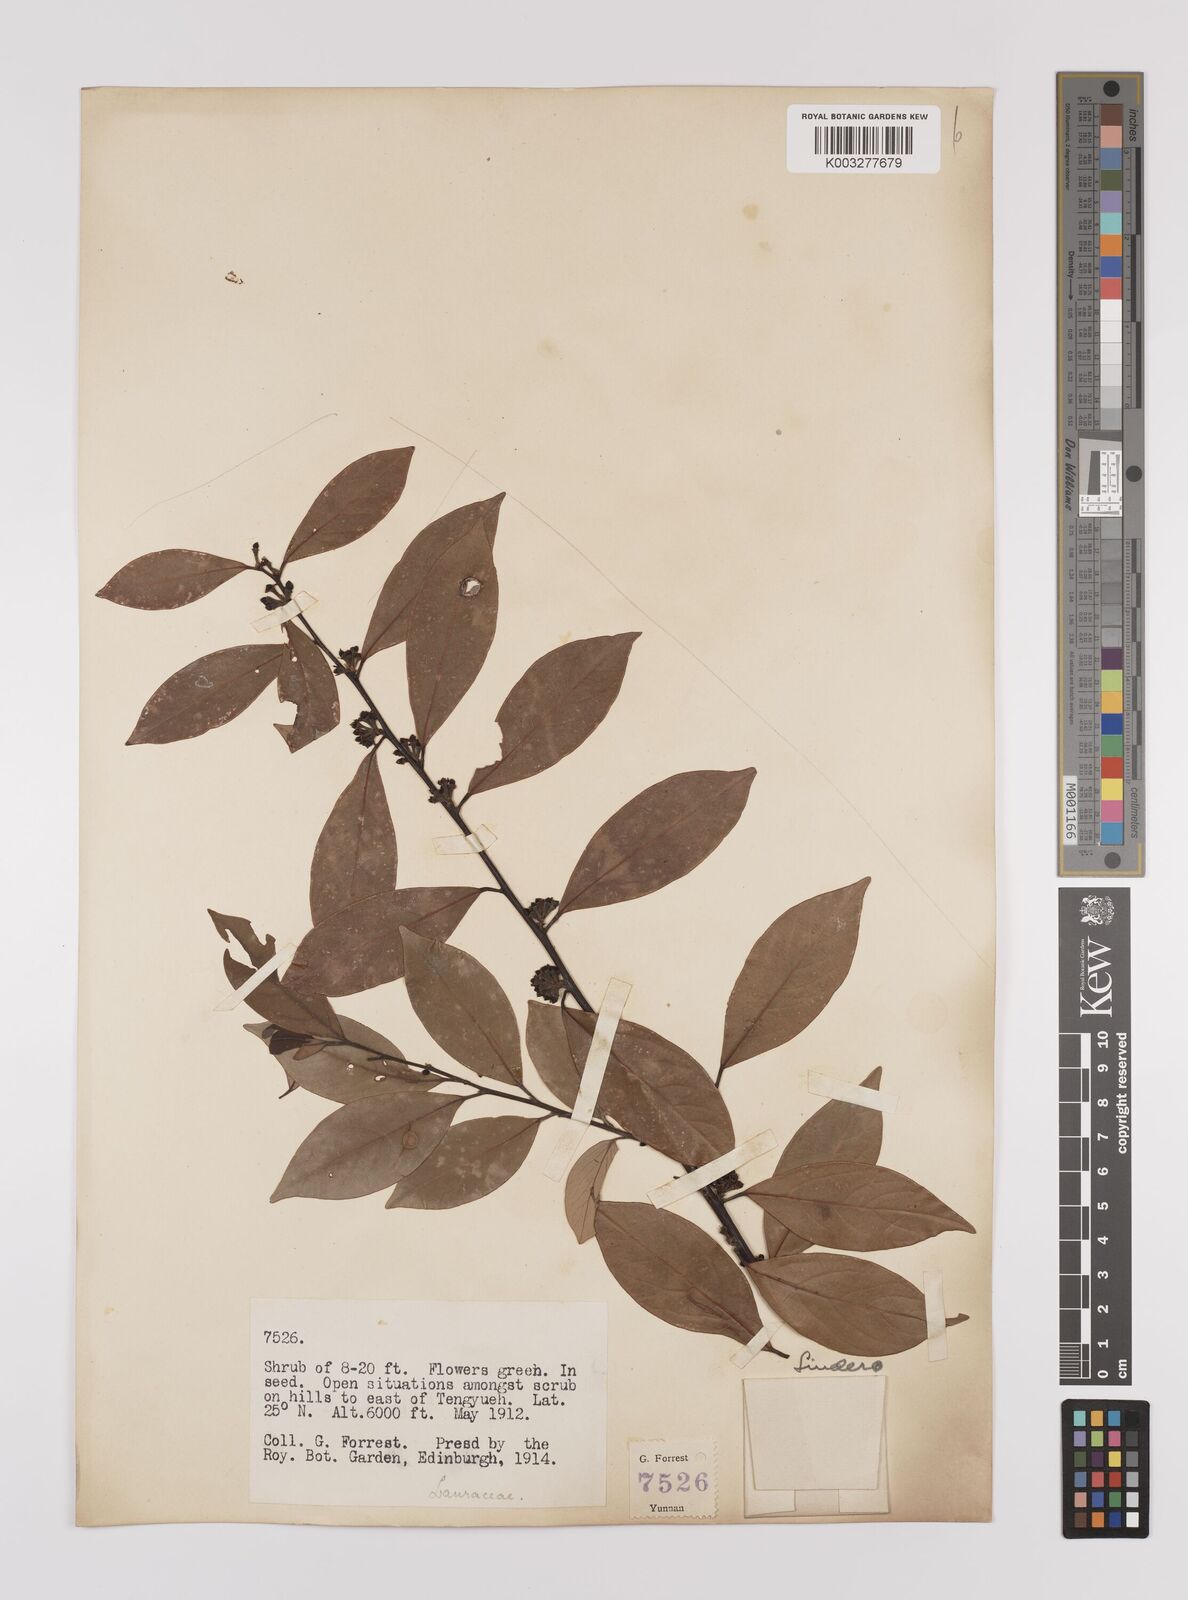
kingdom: Plantae
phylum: Tracheophyta
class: Magnoliopsida
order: Laurales
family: Lauraceae
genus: Litsea
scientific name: Litsea rotundifolia
